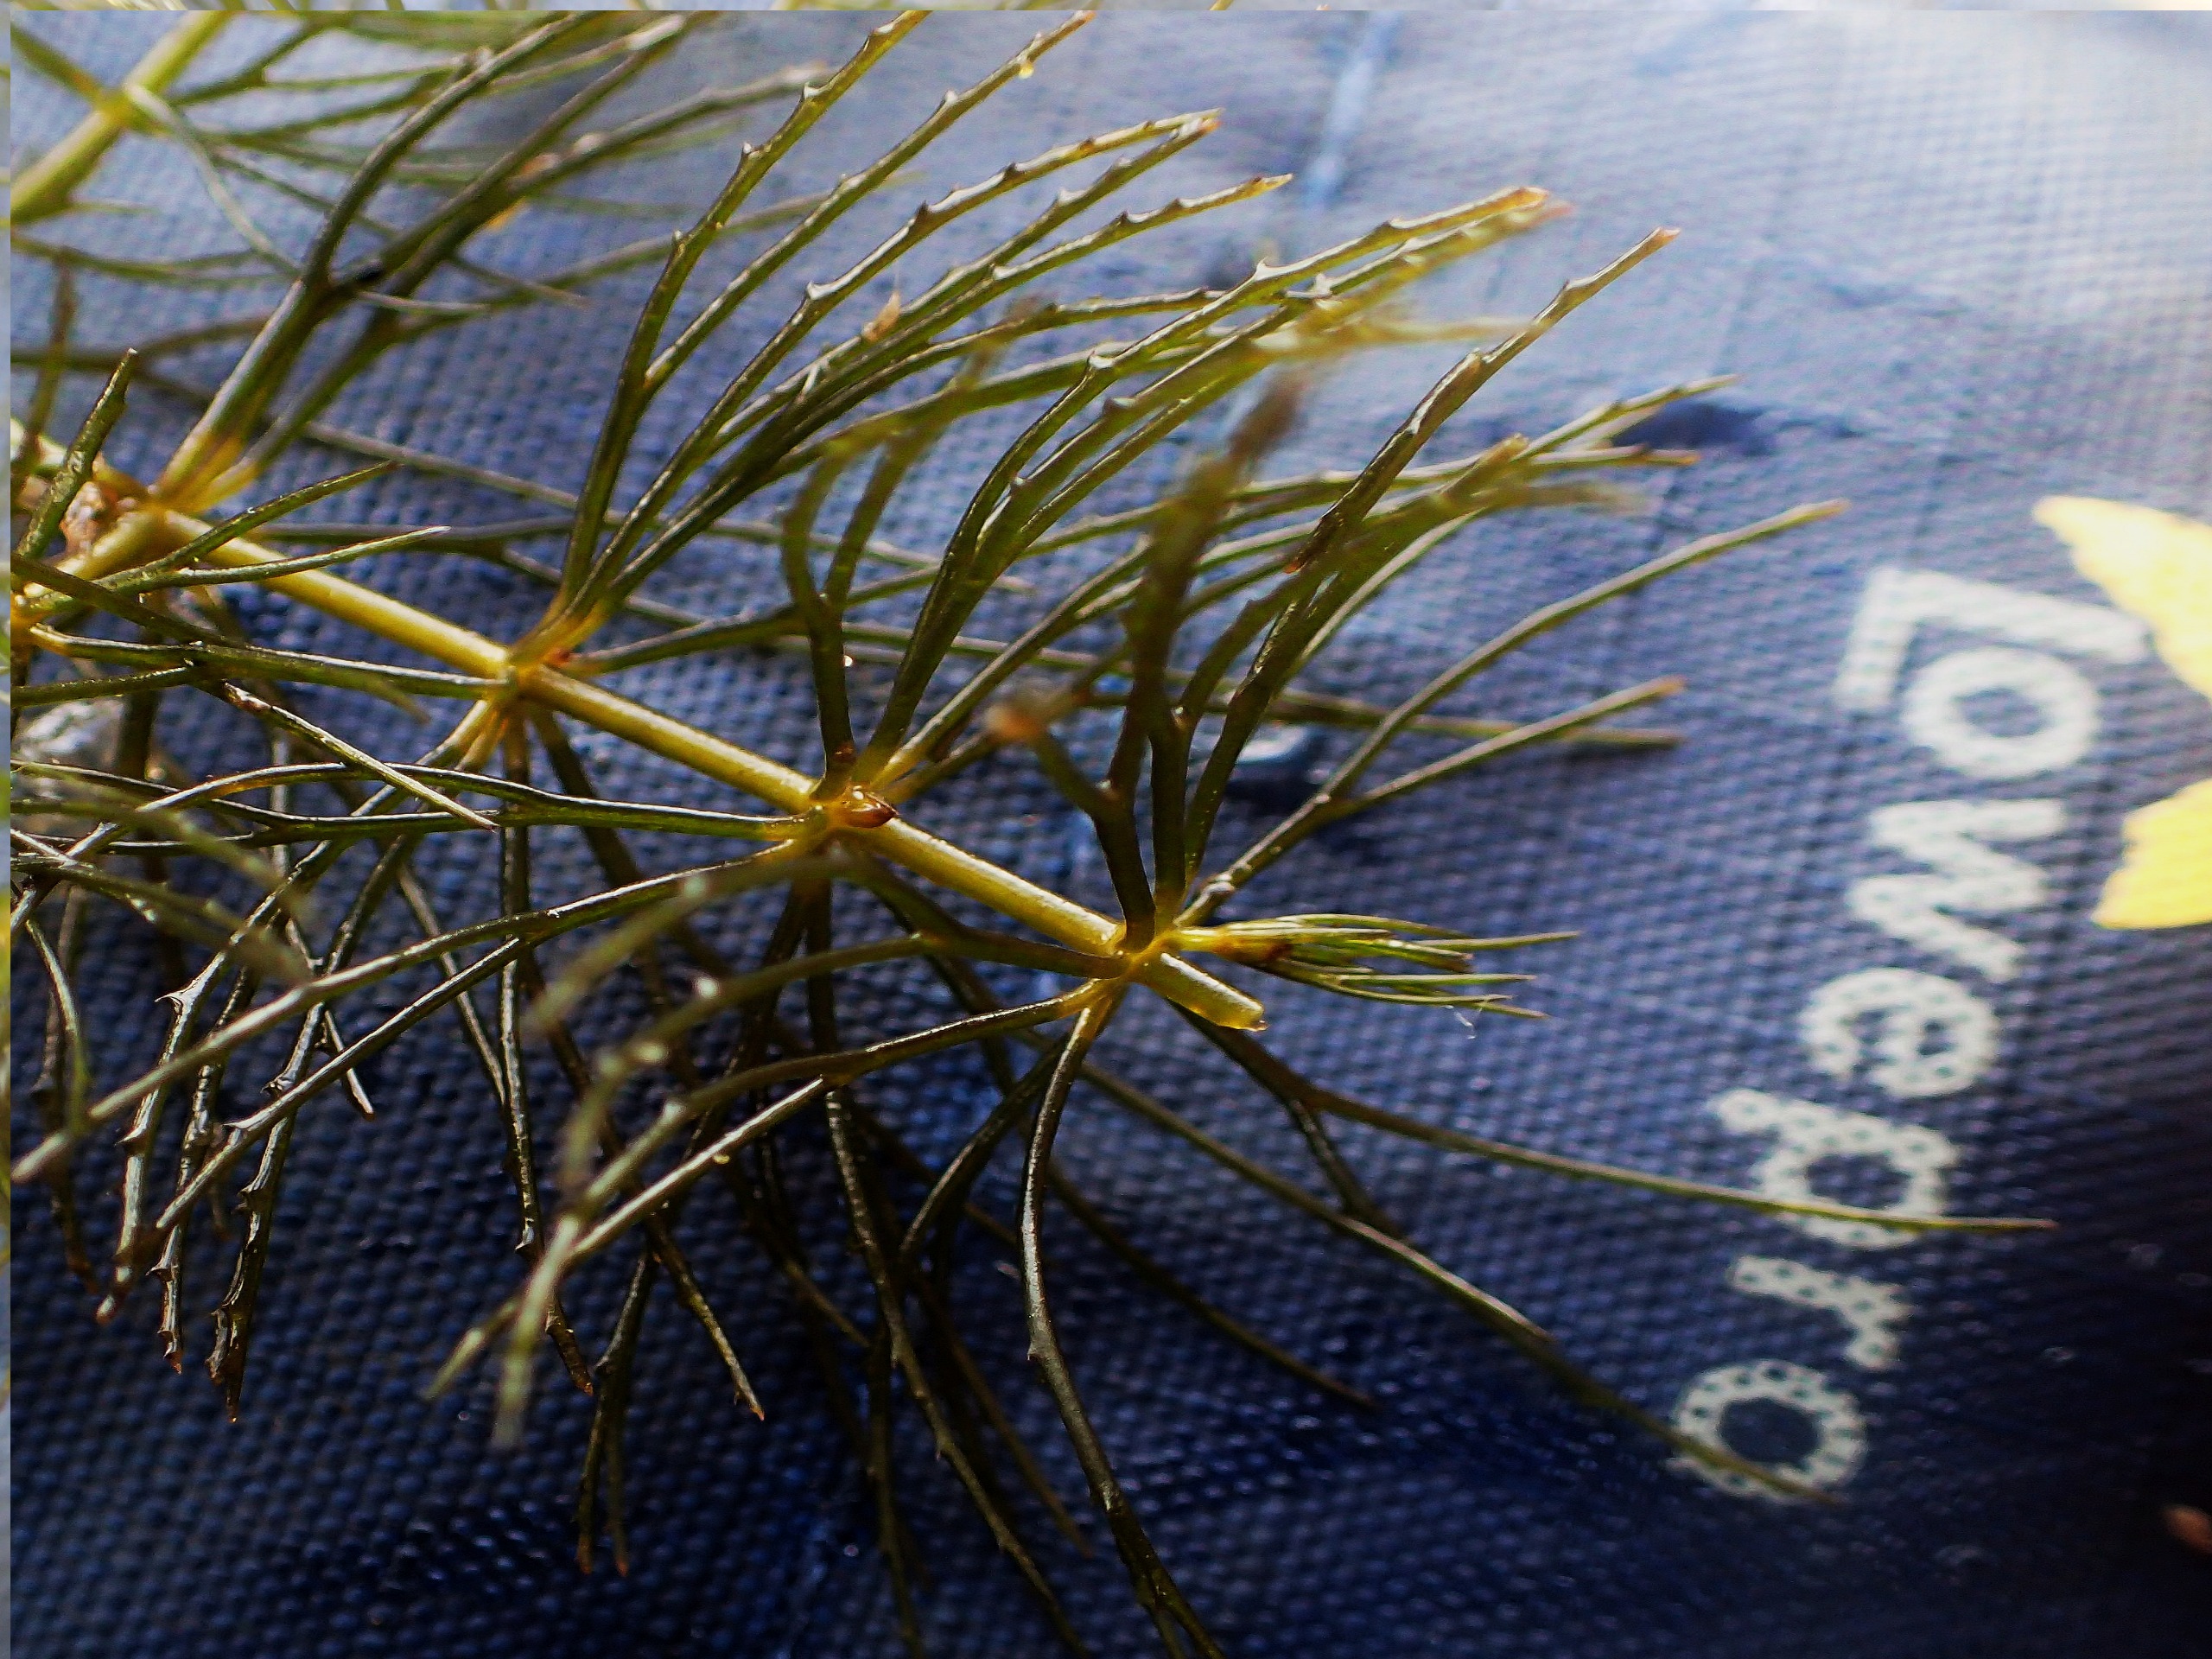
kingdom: Plantae
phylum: Tracheophyta
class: Magnoliopsida
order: Ceratophyllales
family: Ceratophyllaceae
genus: Ceratophyllum
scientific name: Ceratophyllum demersum
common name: Tornfrøet hornblad
